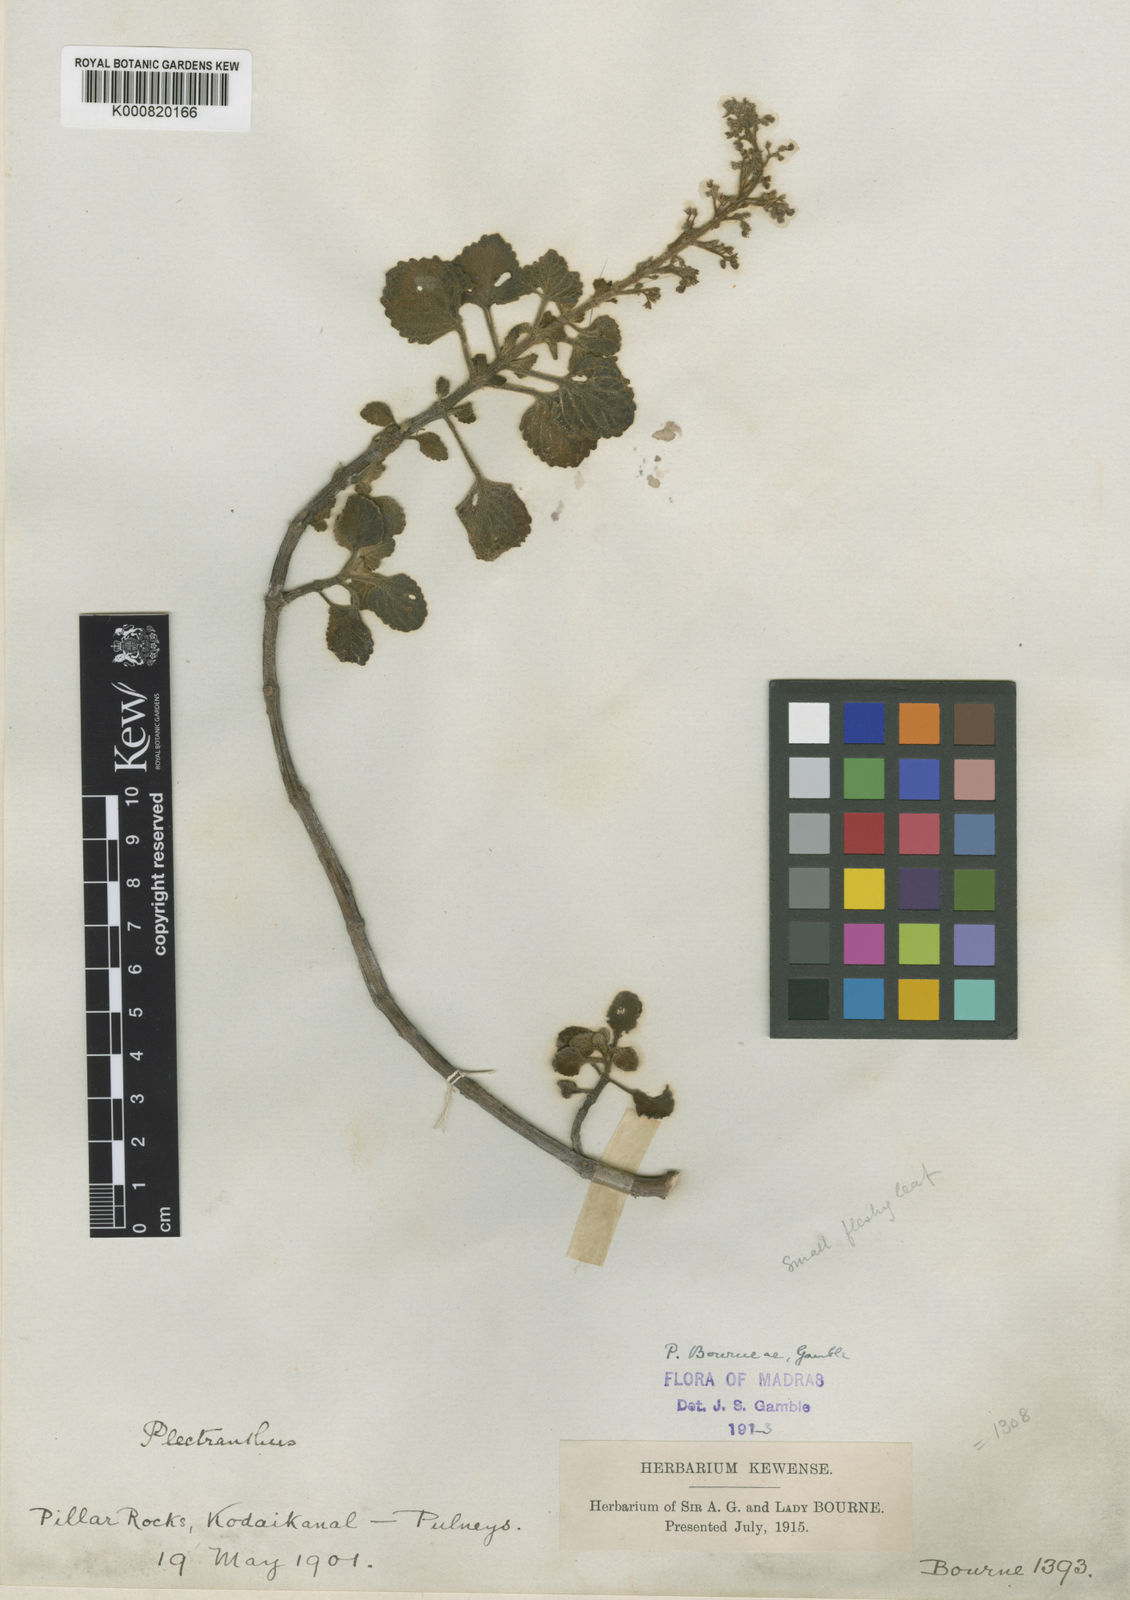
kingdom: Plantae
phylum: Tracheophyta
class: Magnoliopsida
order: Lamiales
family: Lamiaceae
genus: Coleus
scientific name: Coleus bourneae
